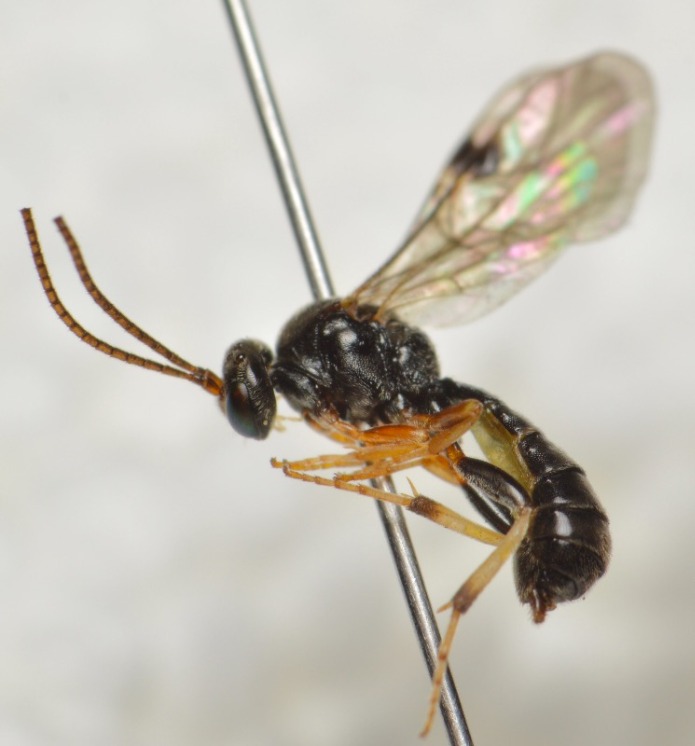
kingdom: Animalia
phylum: Arthropoda
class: Insecta
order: Hymenoptera
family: Ichneumonidae
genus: Otoblastus
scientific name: Otoblastus luteomarginatus
